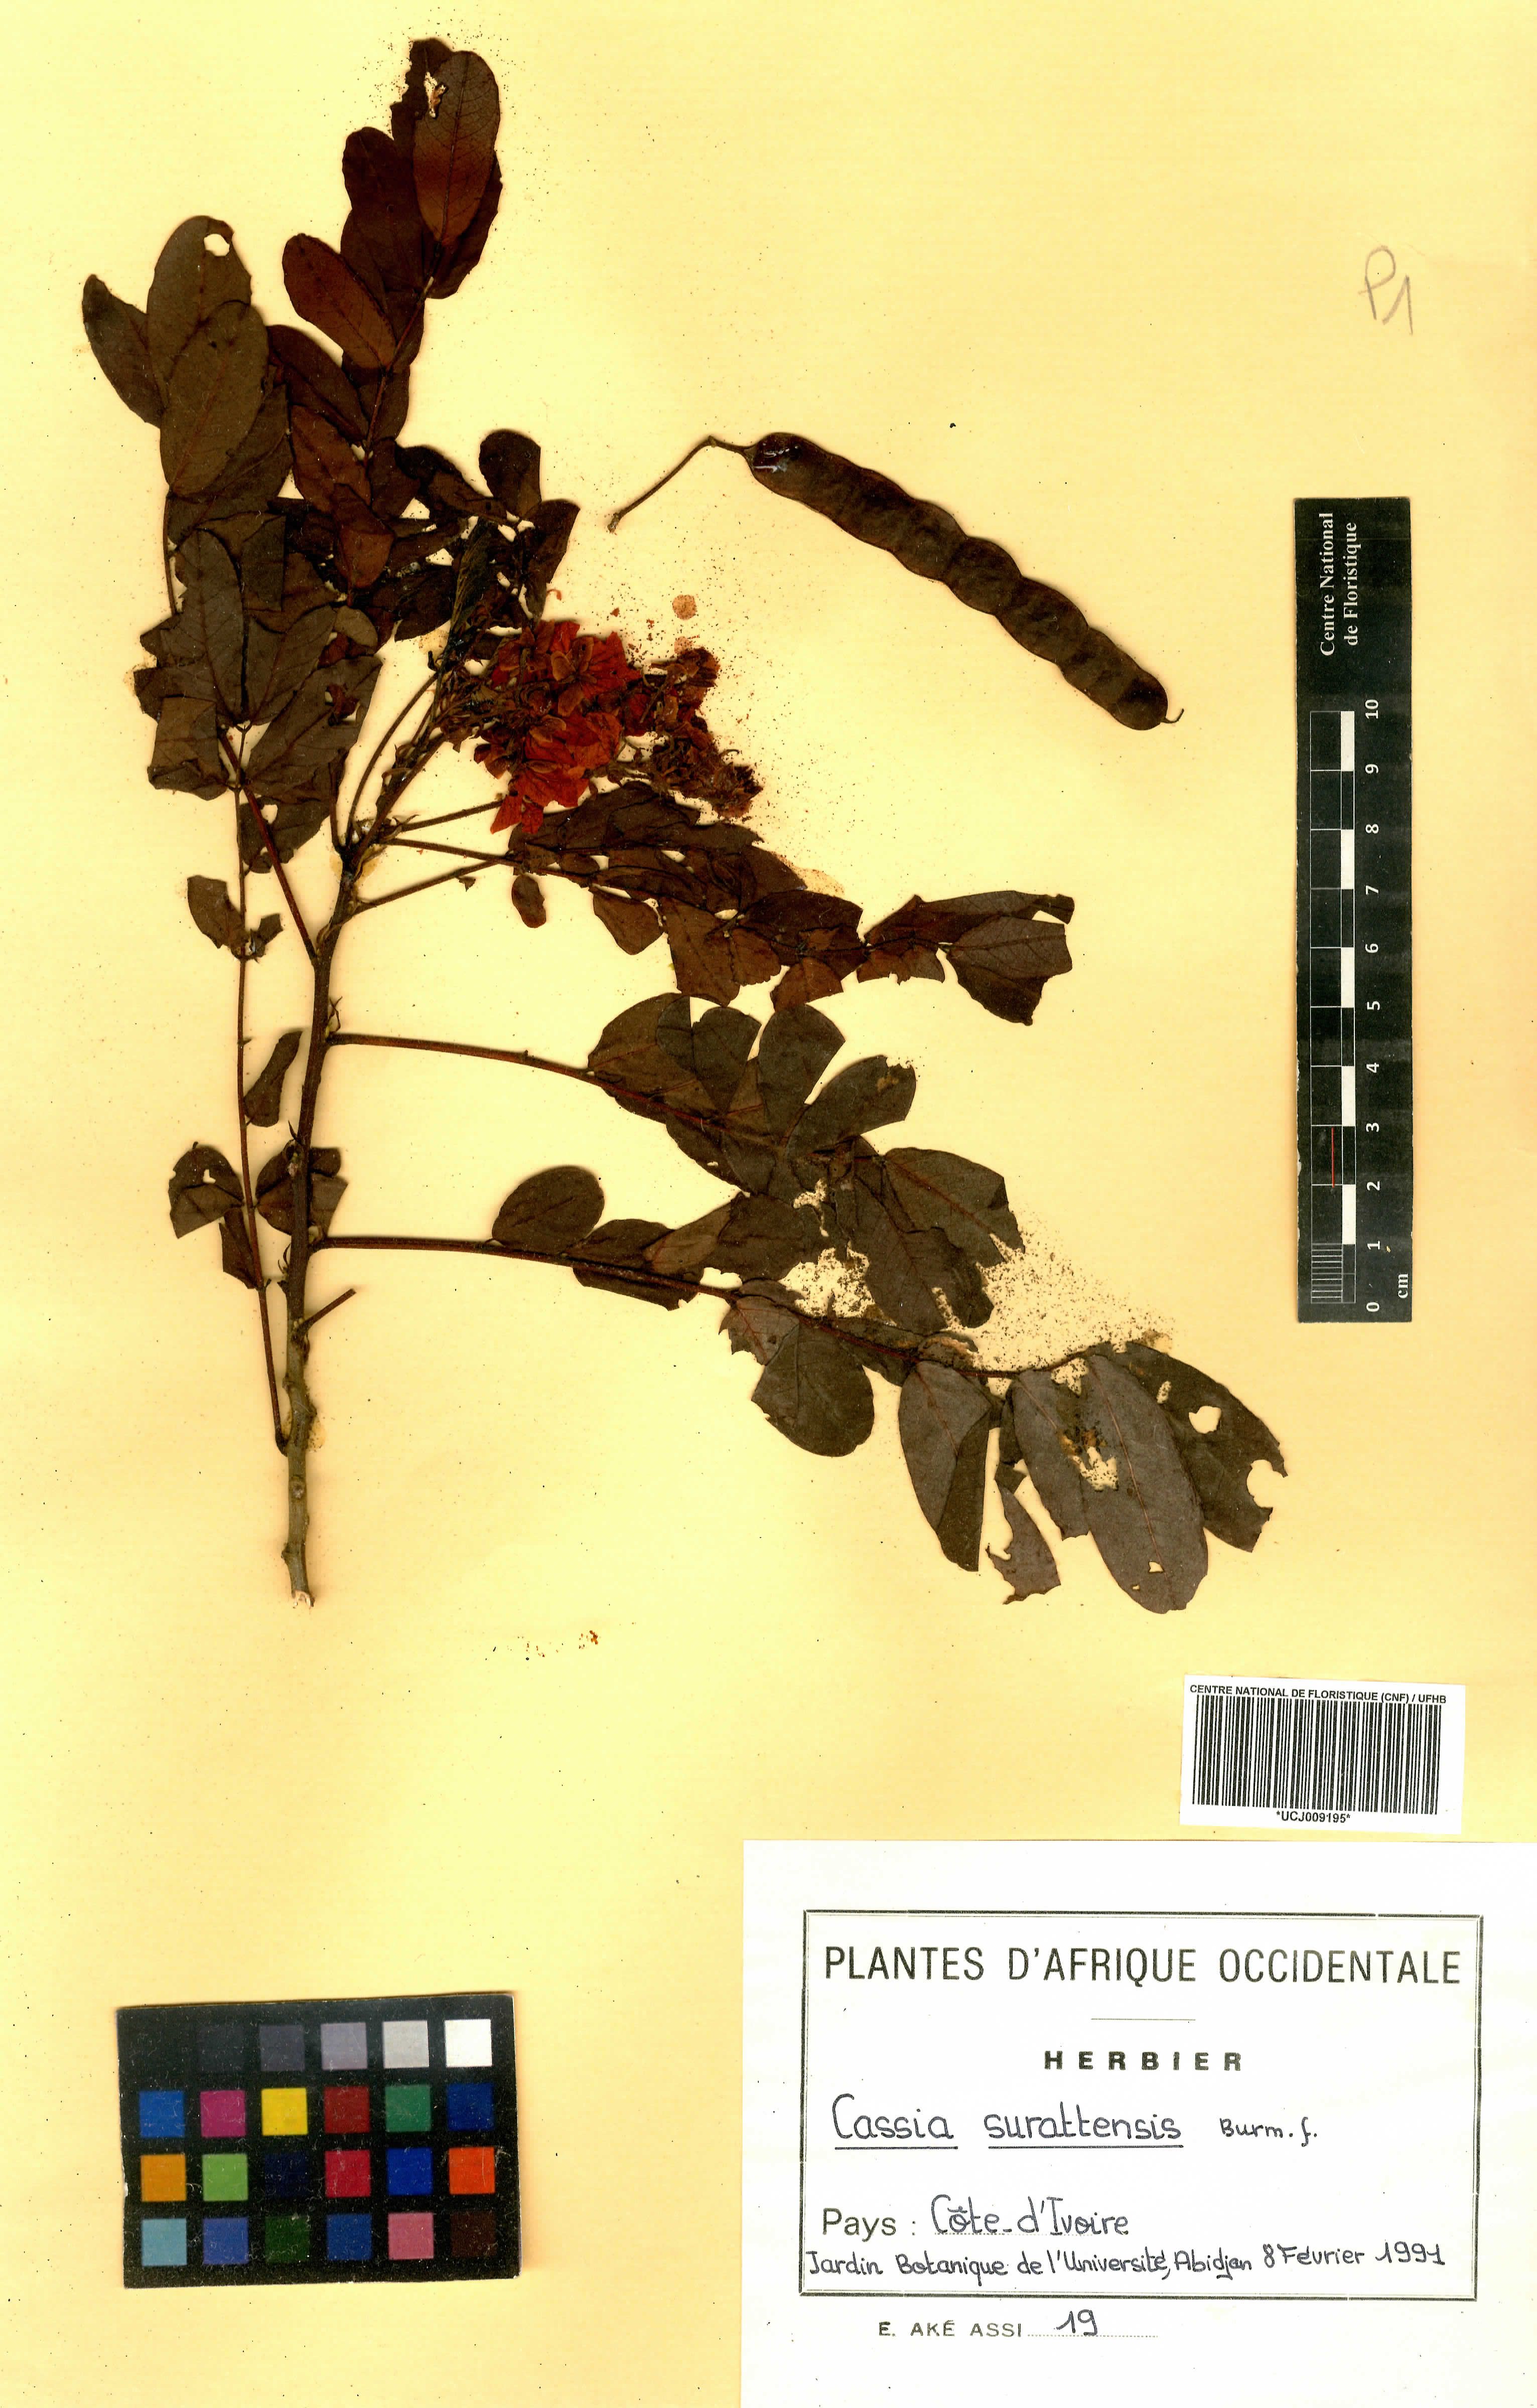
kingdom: Plantae
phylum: Tracheophyta
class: Magnoliopsida
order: Fabales
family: Fabaceae
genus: Senna
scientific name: Senna spectabilis
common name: Casia amarilla
